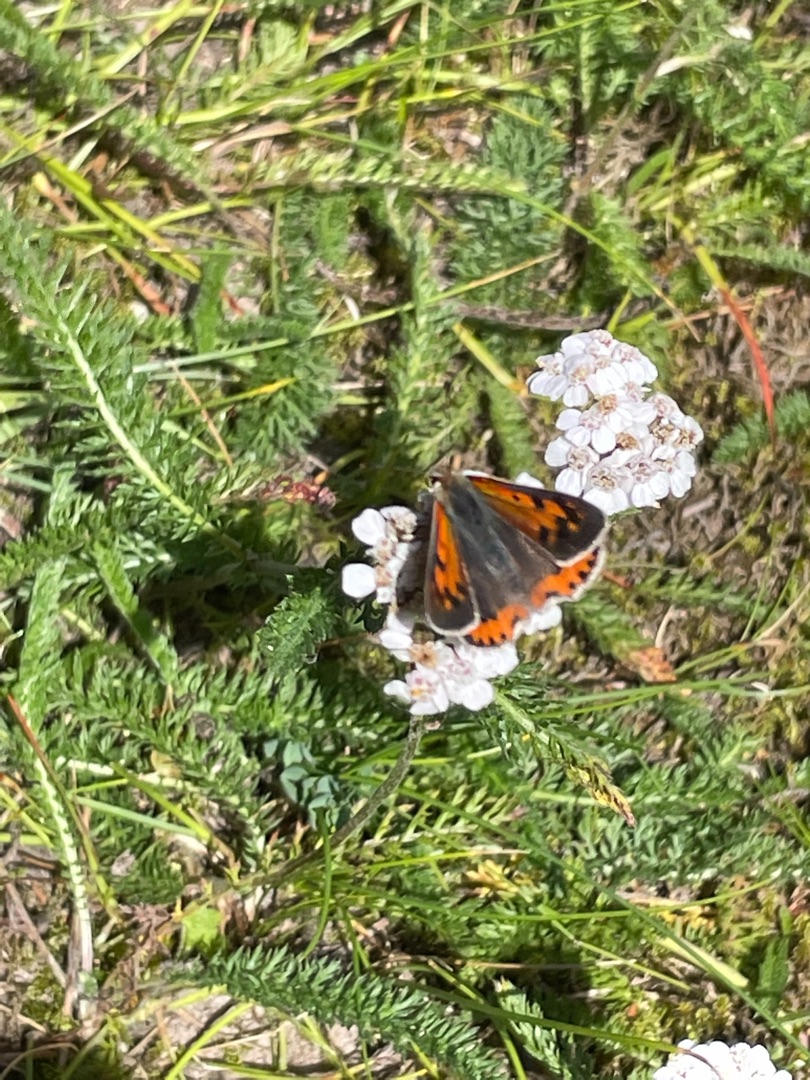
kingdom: Animalia
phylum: Arthropoda
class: Insecta
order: Lepidoptera
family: Lycaenidae
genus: Lycaena
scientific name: Lycaena phlaeas
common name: Lille ildfugl
